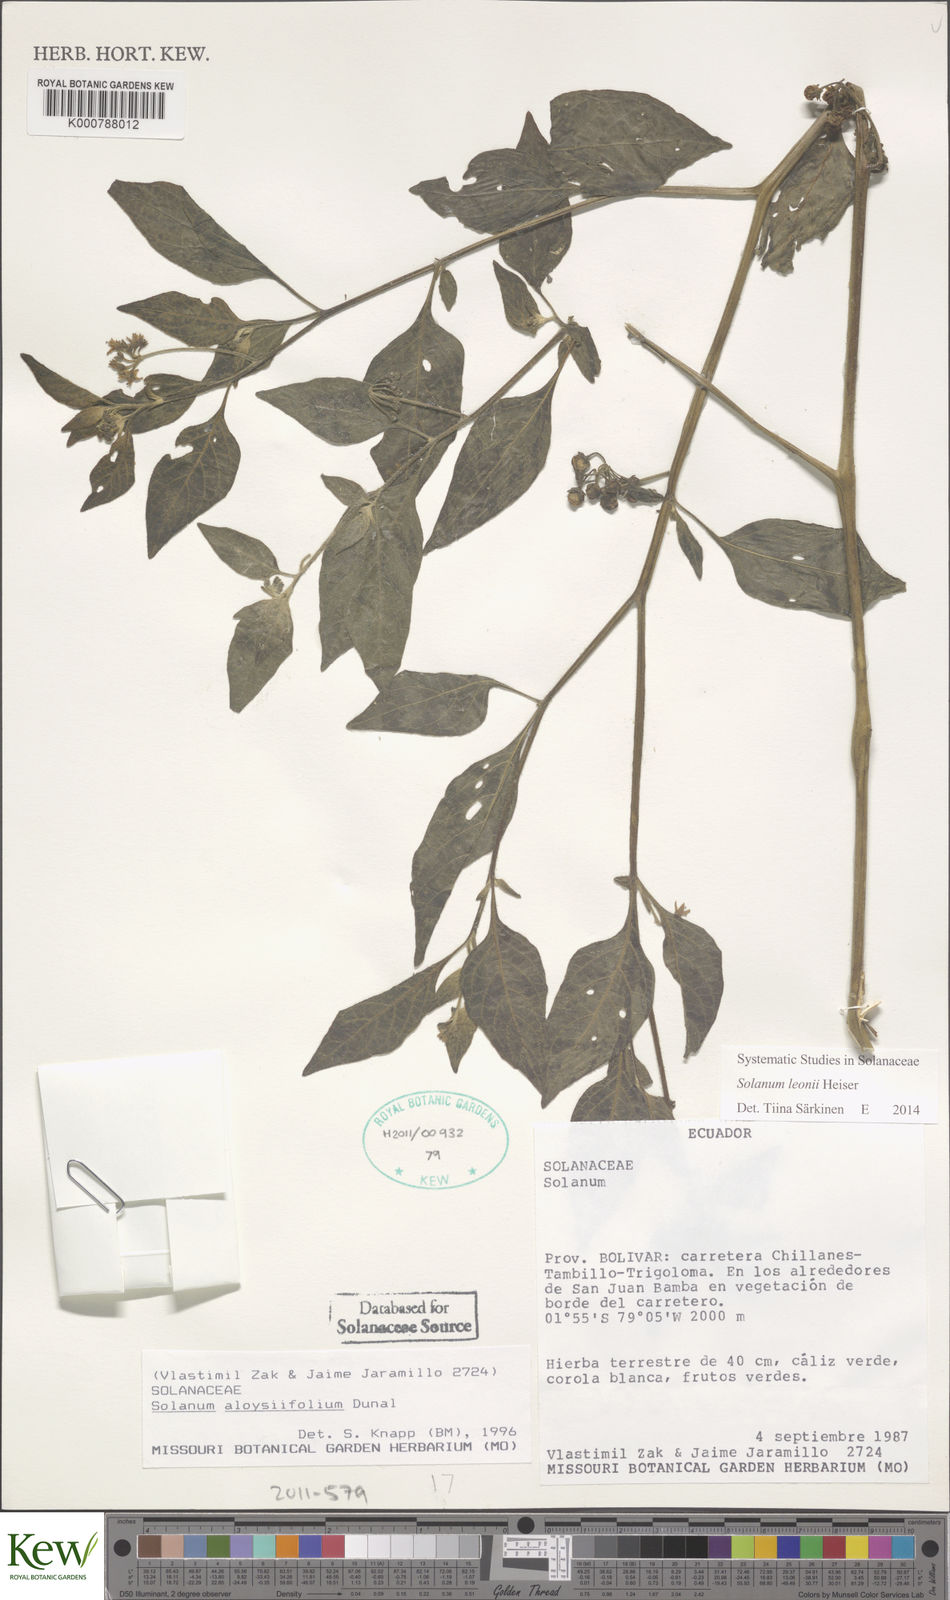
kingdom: Plantae
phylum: Tracheophyta
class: Magnoliopsida
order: Solanales
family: Solanaceae
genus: Solanum
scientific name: Solanum interandinum
